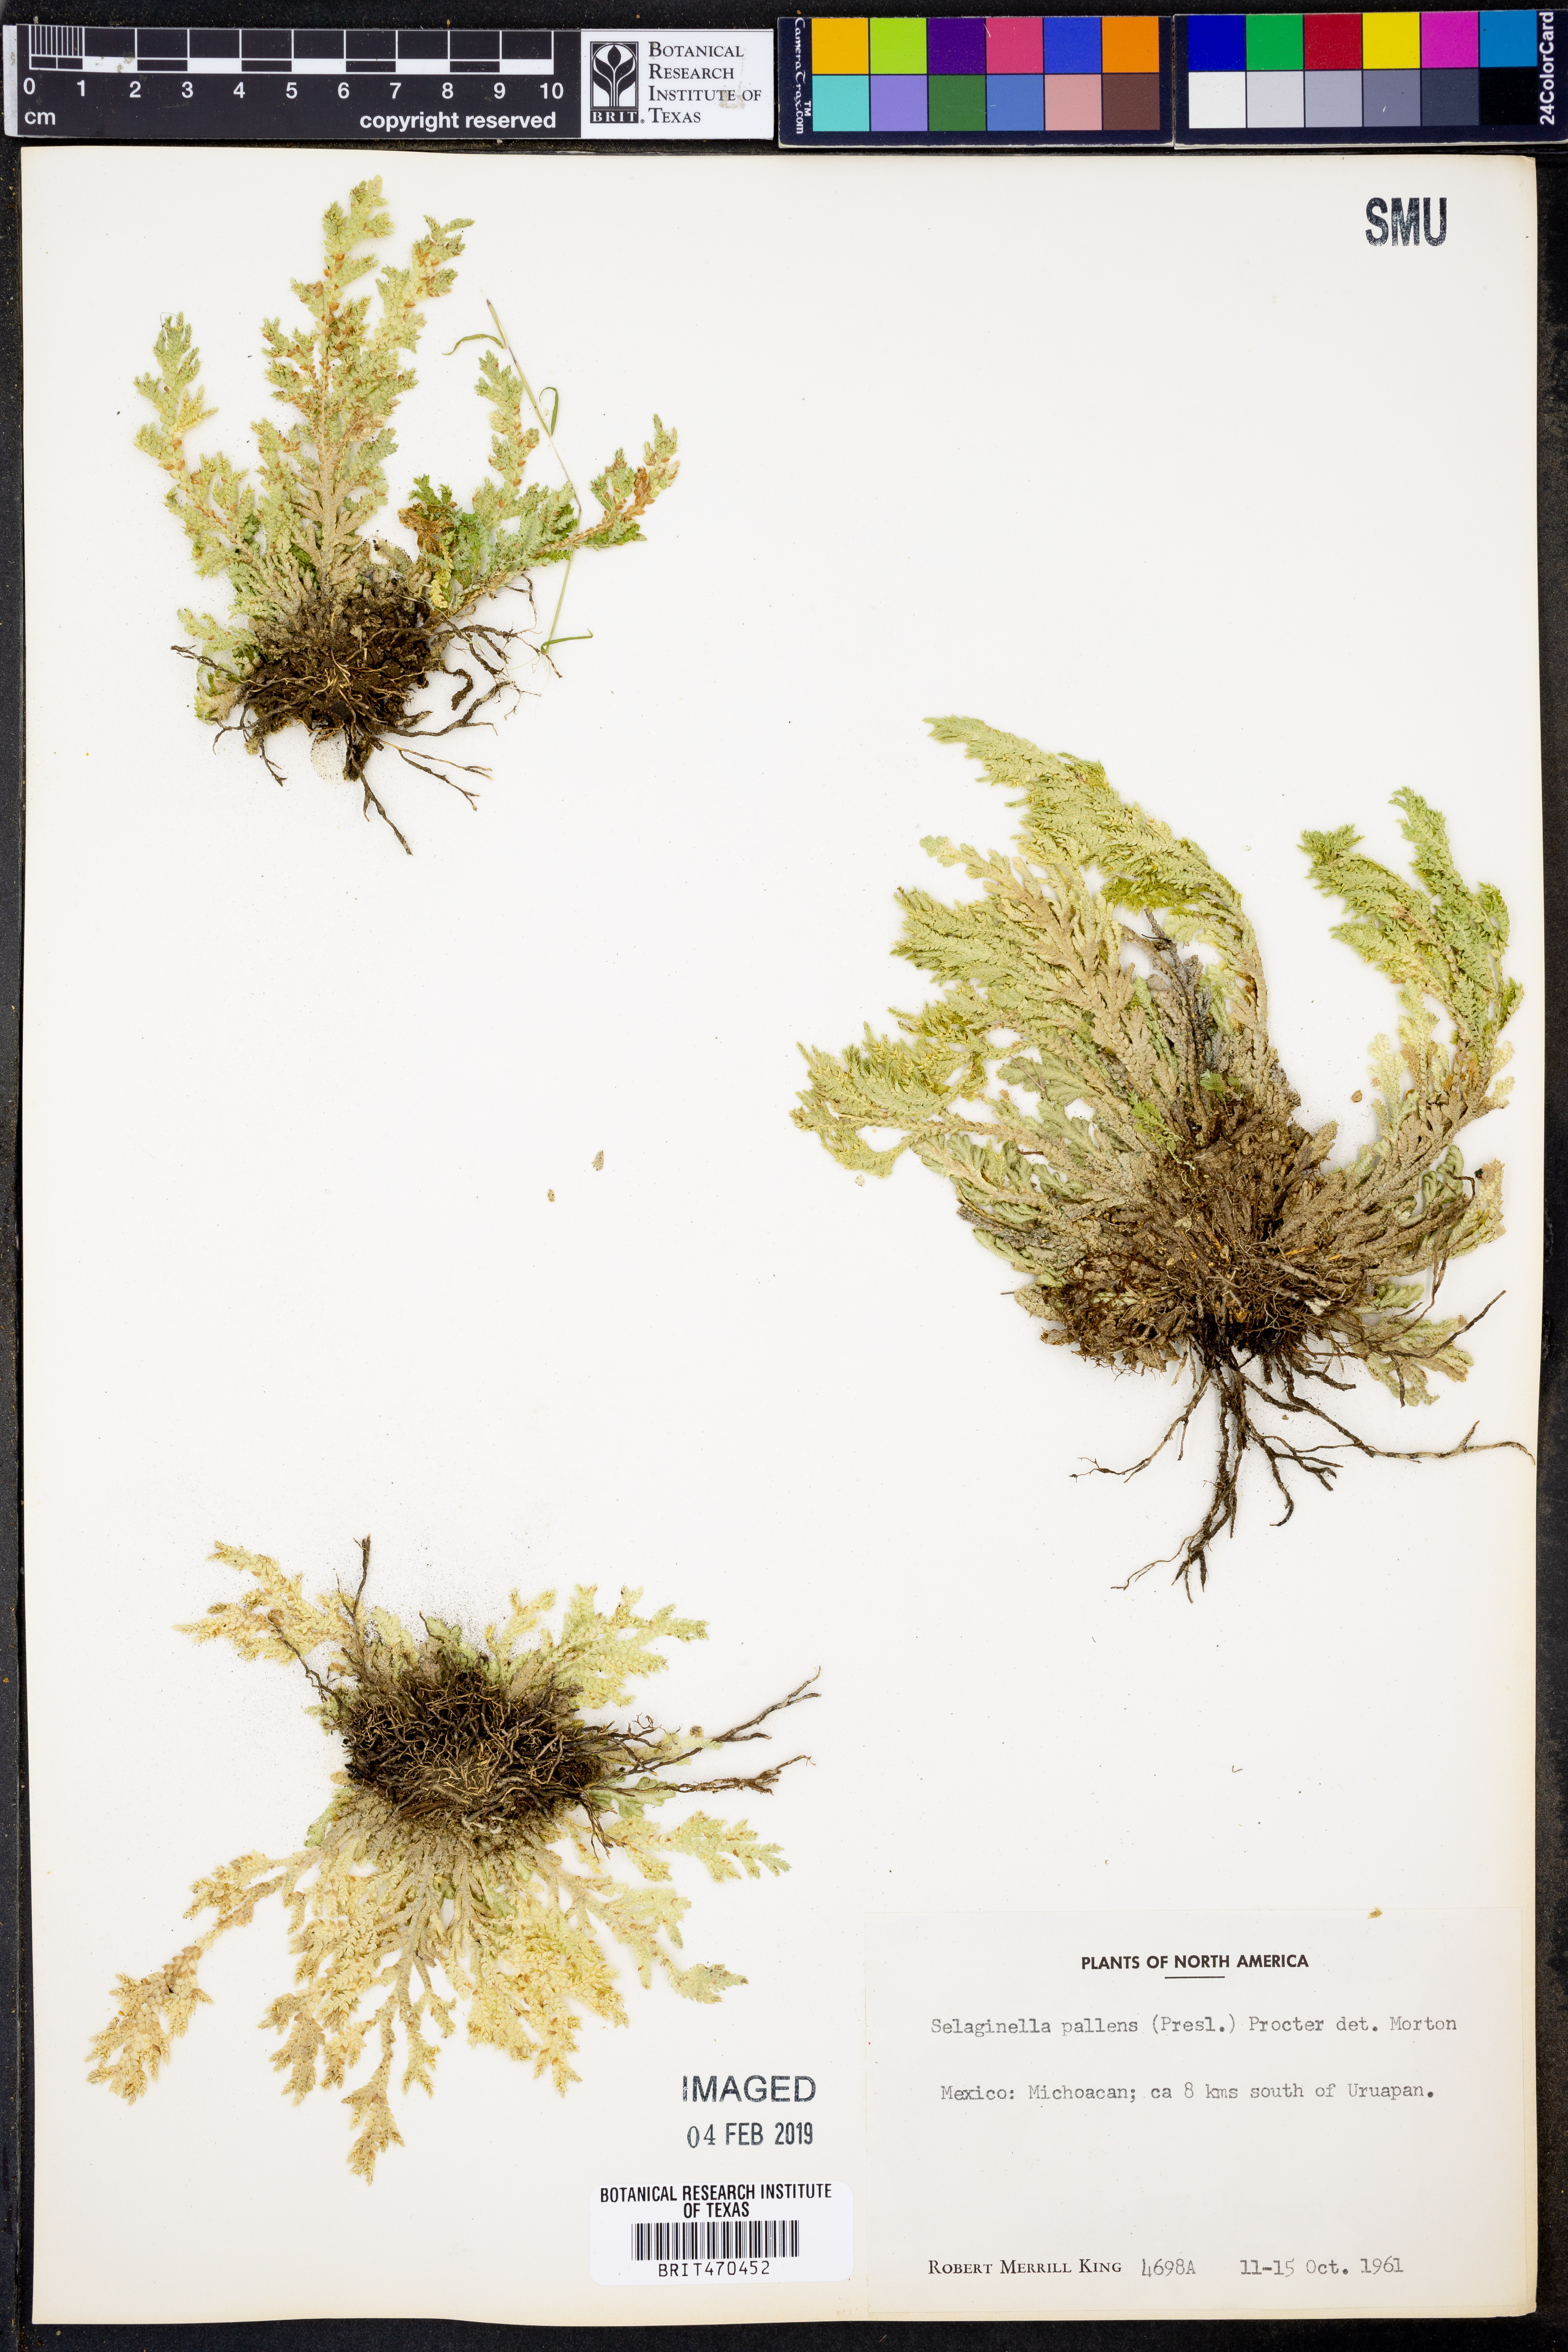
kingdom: Plantae
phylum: Tracheophyta
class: Lycopodiopsida
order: Selaginellales
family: Selaginellaceae
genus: Selaginella
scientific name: Selaginella
